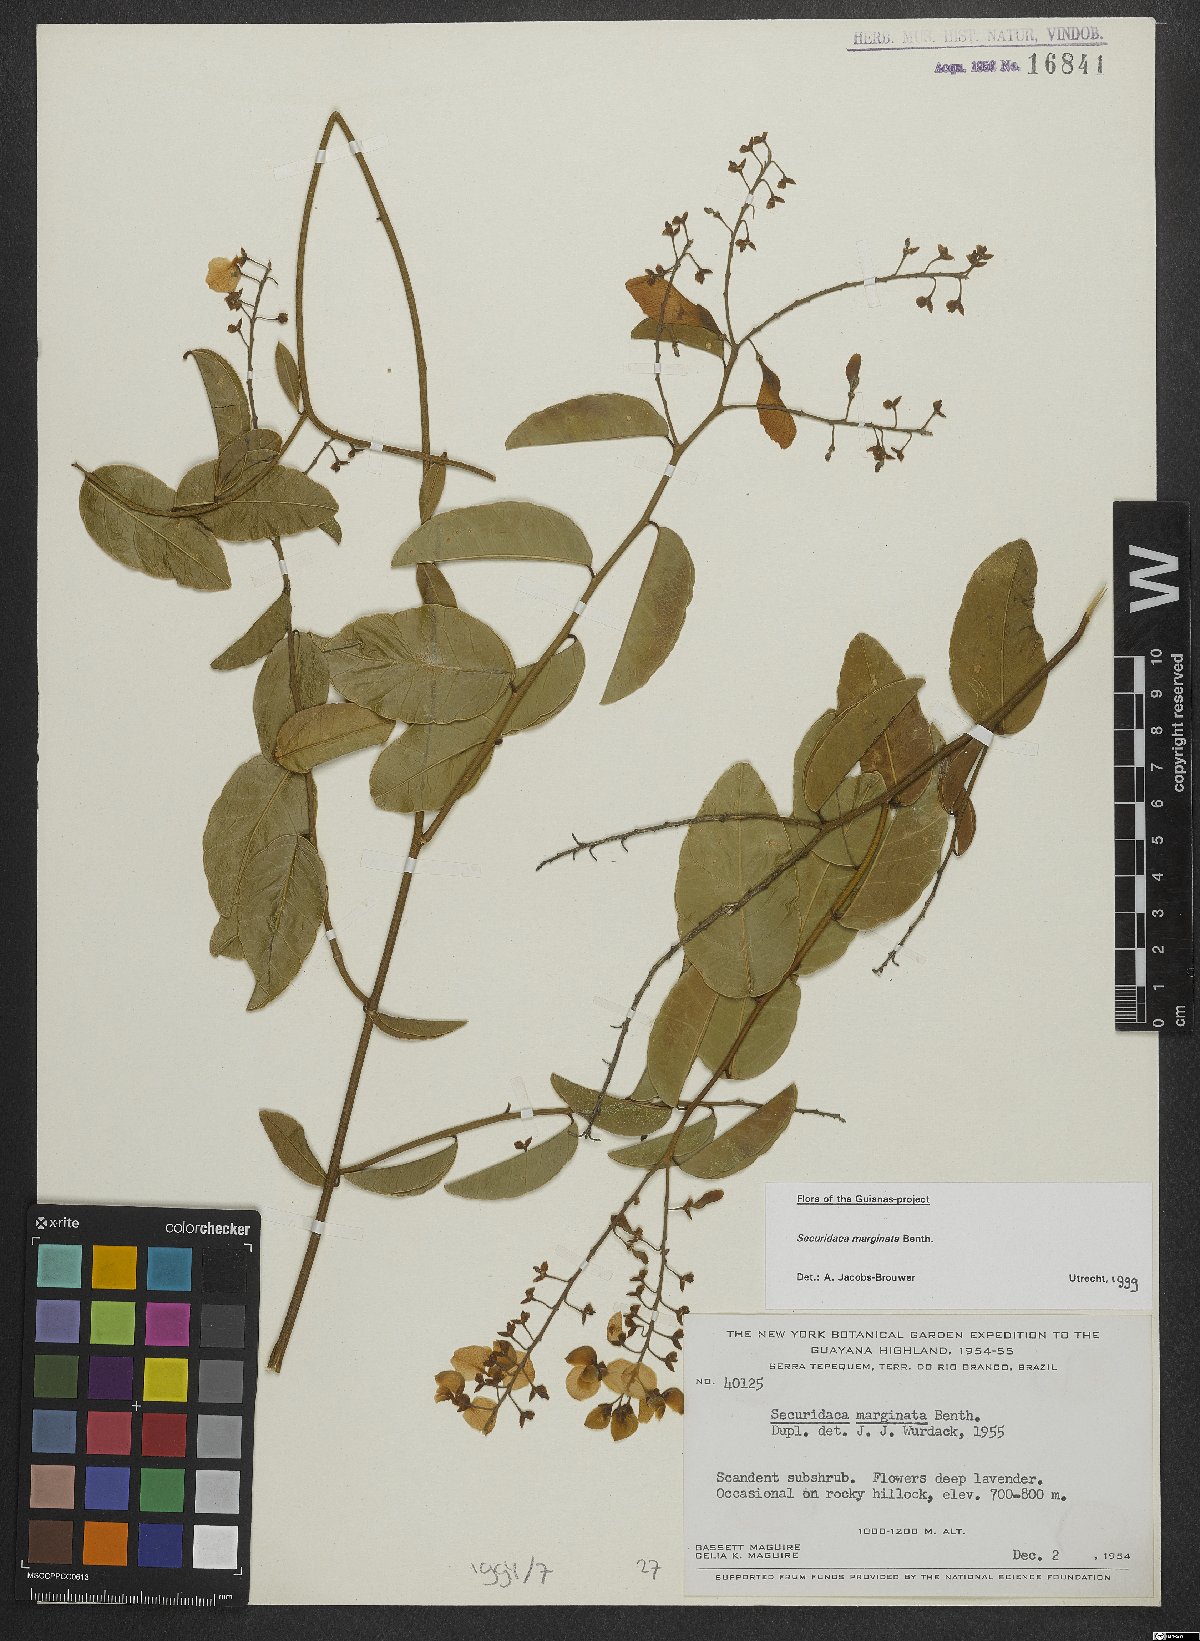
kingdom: Plantae
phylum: Tracheophyta
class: Magnoliopsida
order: Fabales
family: Polygalaceae
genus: Securidaca
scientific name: Securidaca marginata
